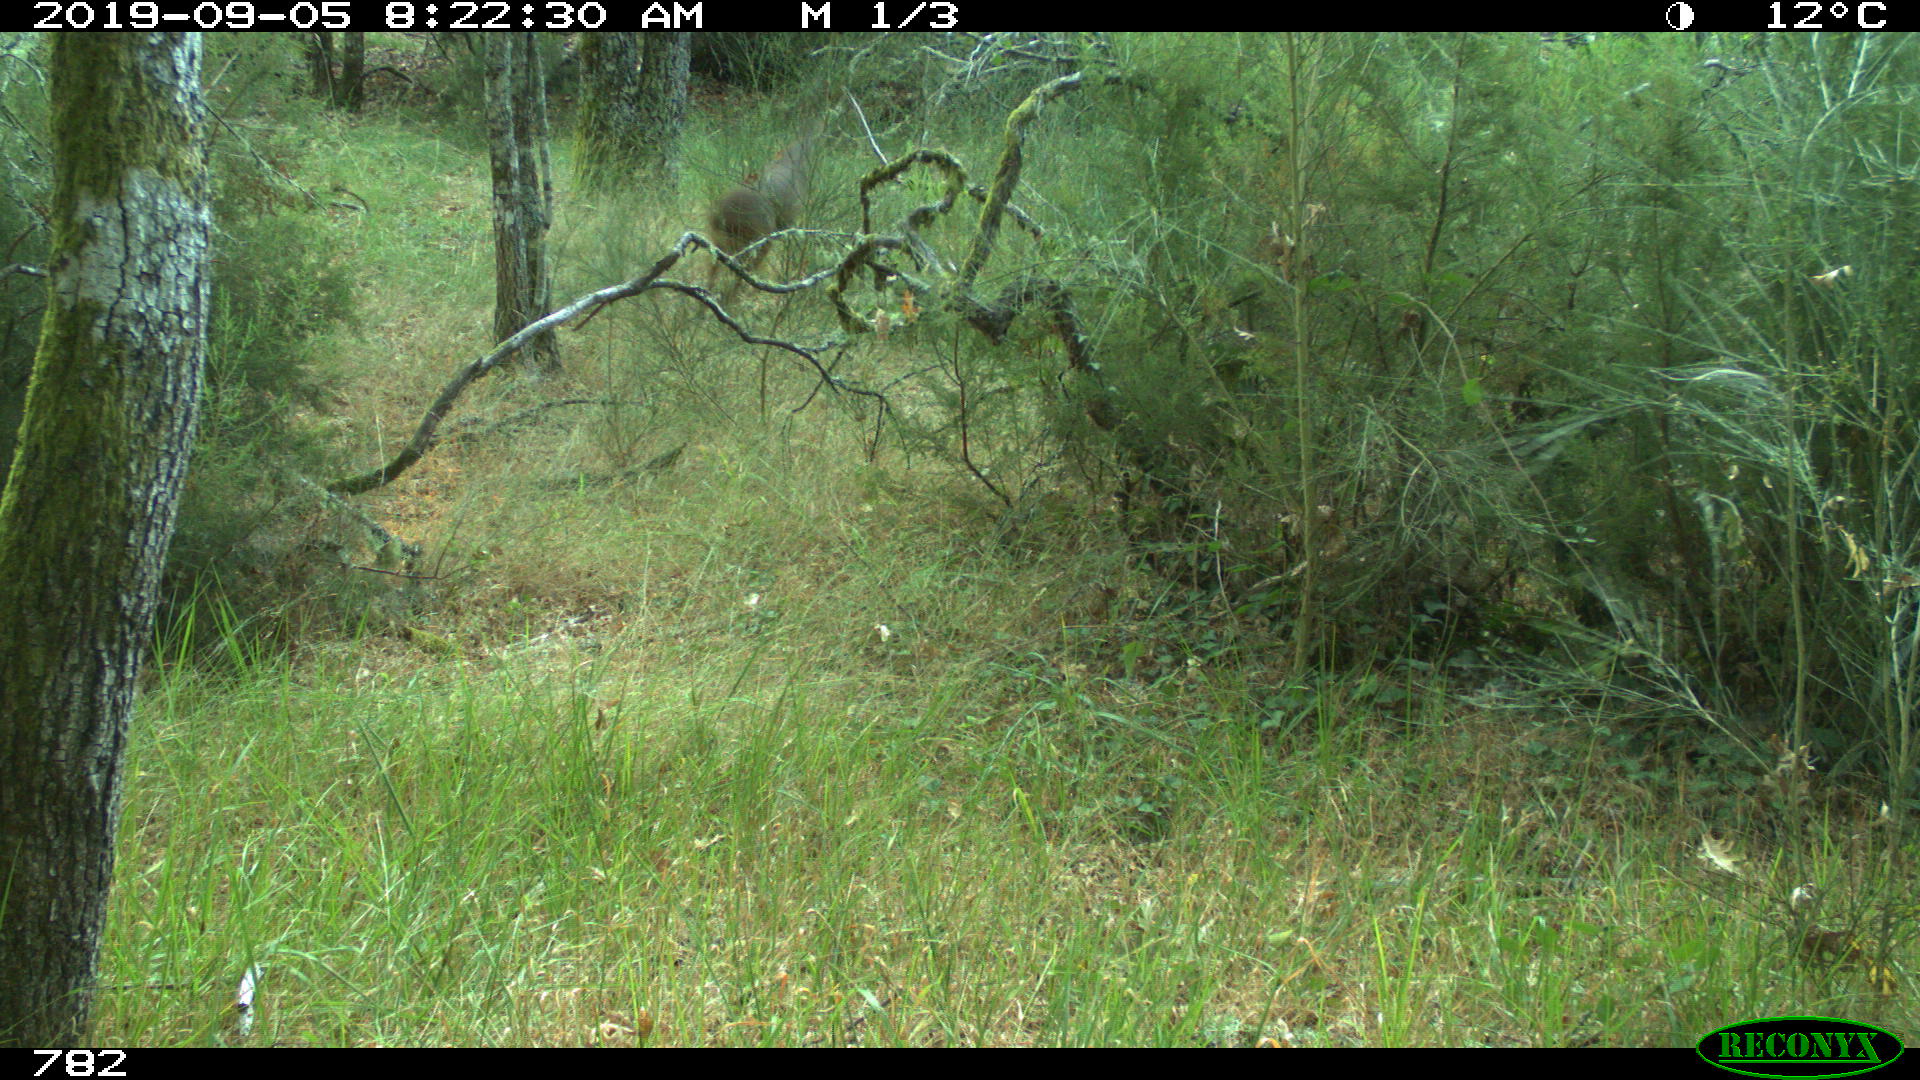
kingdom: Animalia
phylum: Chordata
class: Mammalia
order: Artiodactyla
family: Cervidae
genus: Capreolus
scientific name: Capreolus capreolus
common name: Western roe deer
